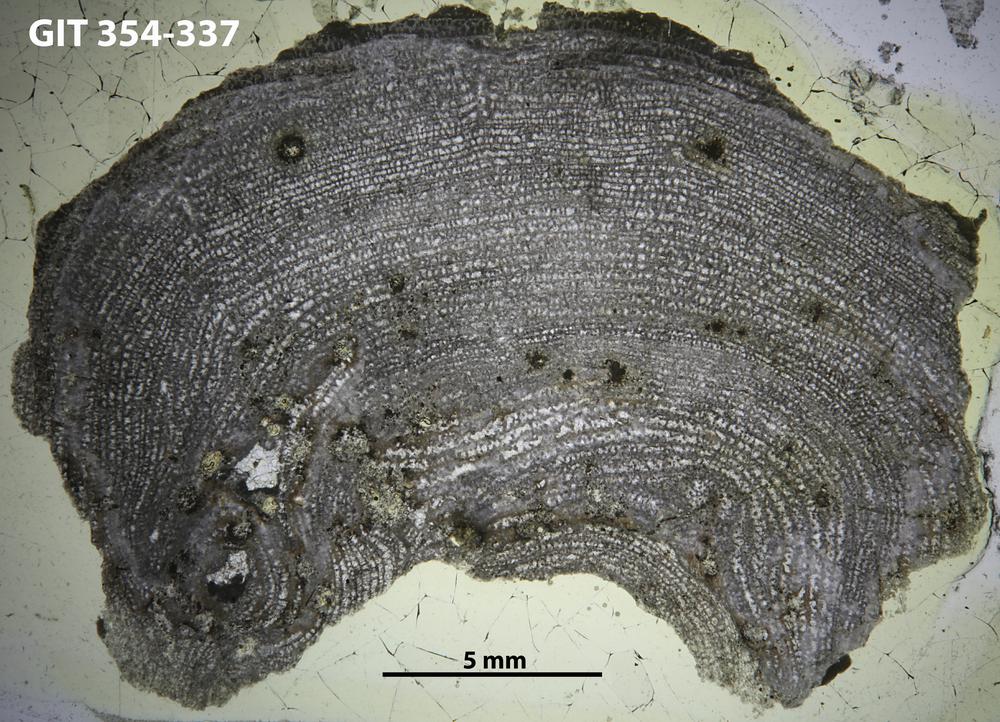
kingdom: Animalia
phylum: Porifera
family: Tienodictyidae
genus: Intexodictyon
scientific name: Intexodictyon olevi
